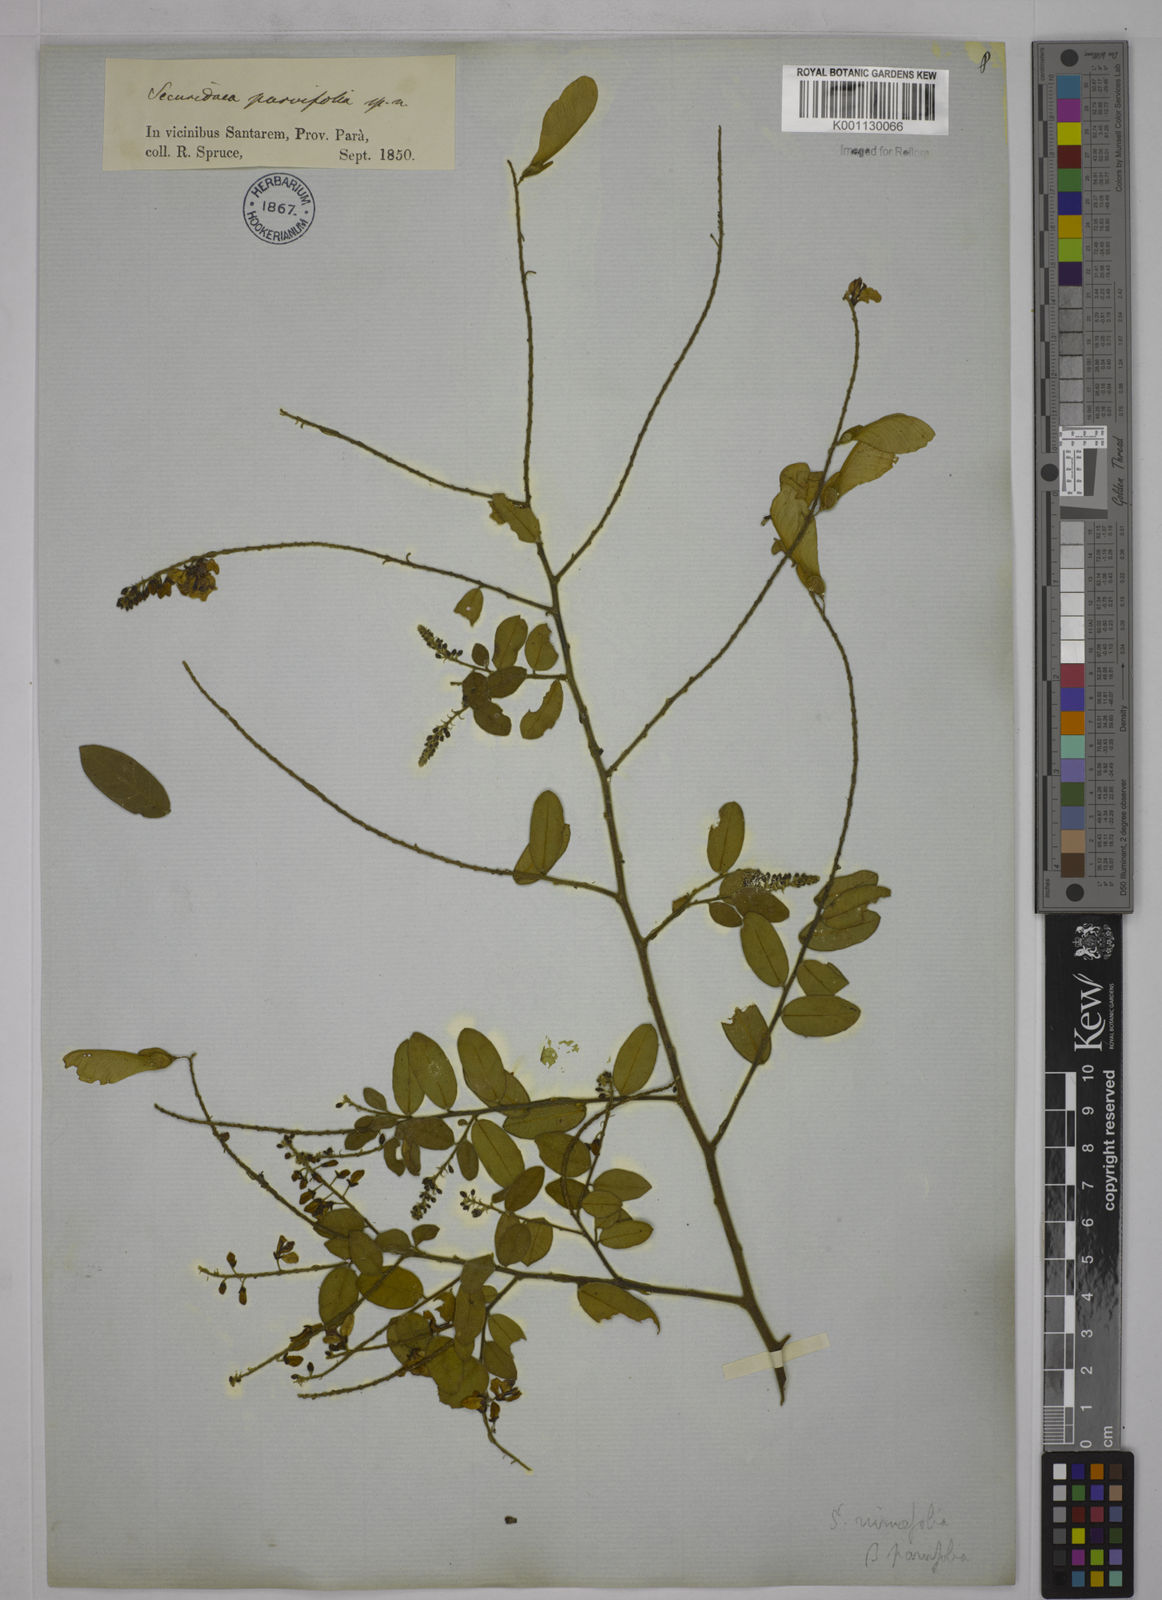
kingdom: Plantae
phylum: Tracheophyta
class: Magnoliopsida
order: Fabales
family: Polygalaceae
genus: Securidaca
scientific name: Securidaca rivinifolia
